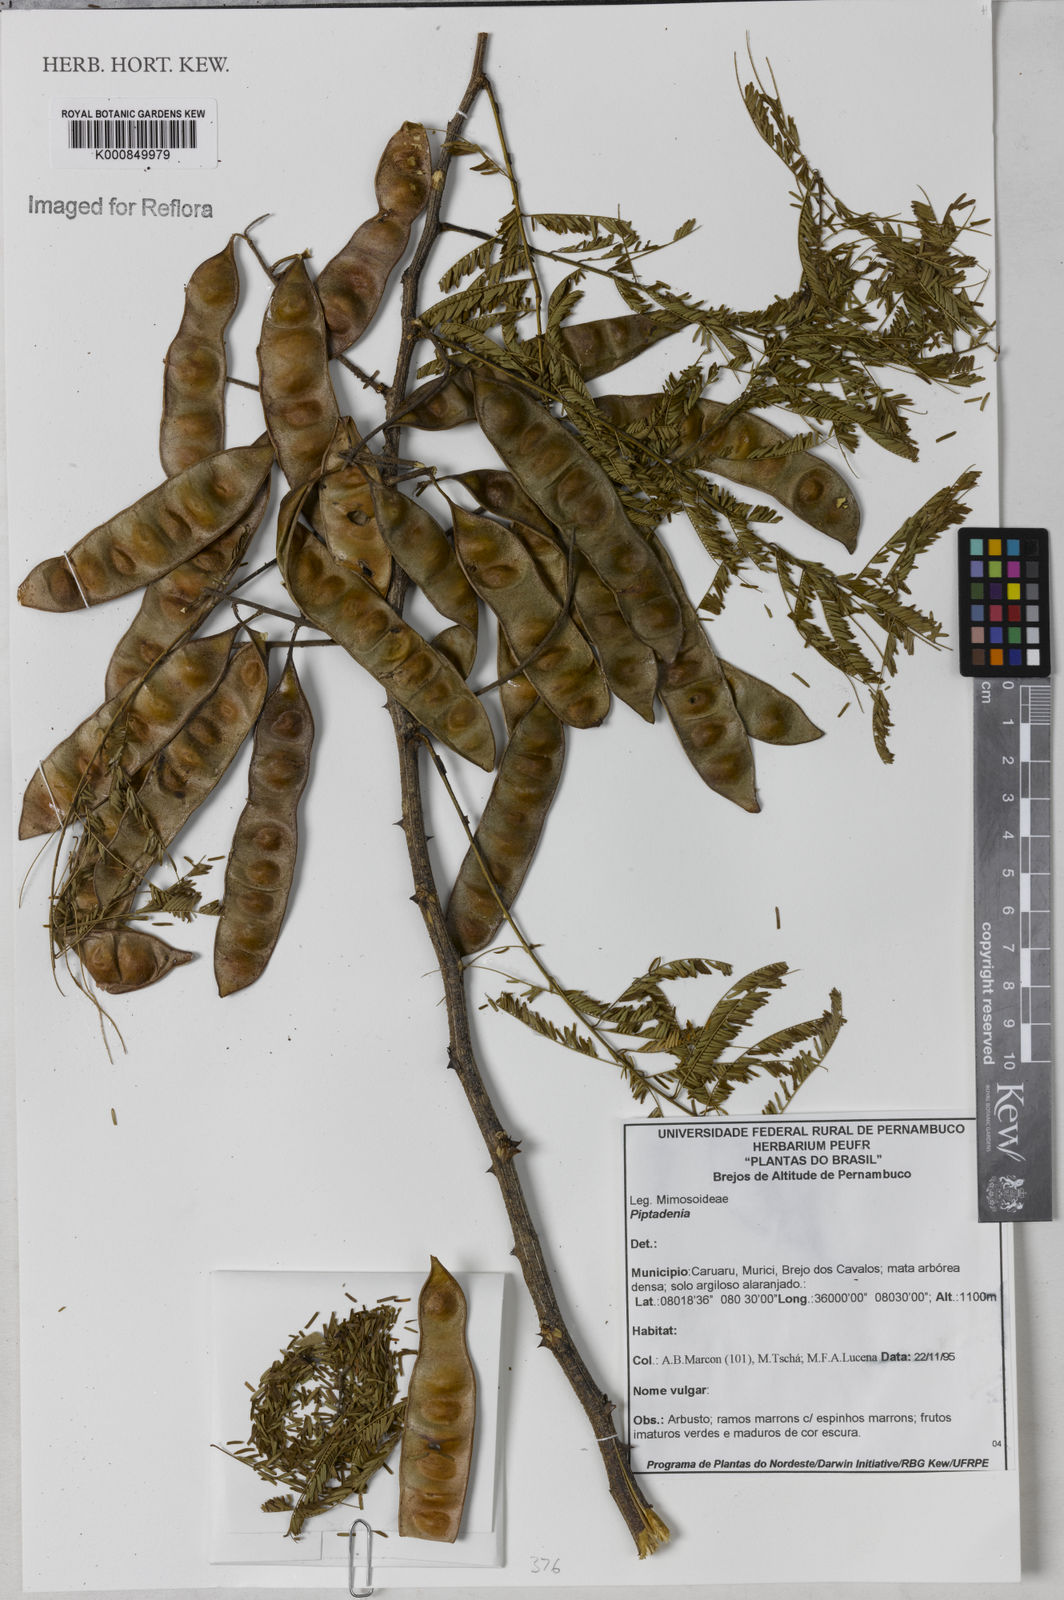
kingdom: Plantae
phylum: Tracheophyta
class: Magnoliopsida
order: Fabales
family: Fabaceae
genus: Piptadenia
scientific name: Piptadenia
